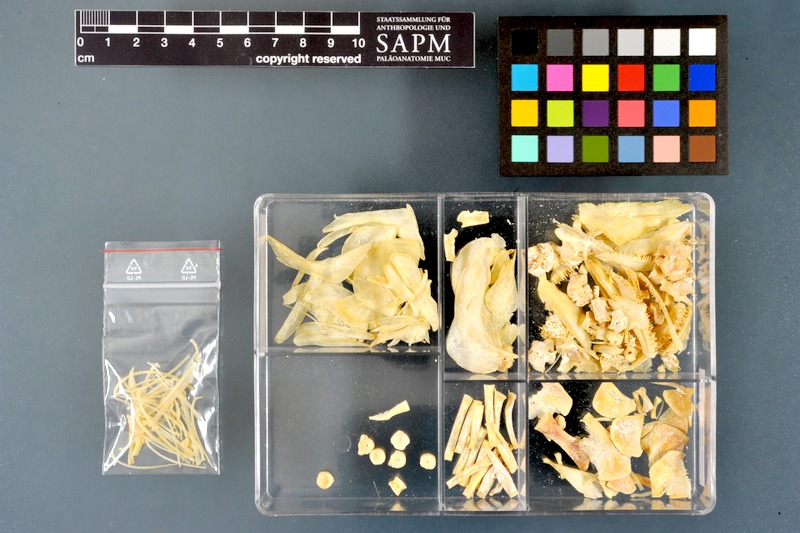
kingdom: Animalia
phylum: Chordata
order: Salmoniformes
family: Salmonidae
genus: Thymallus
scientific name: Thymallus brevirostris
